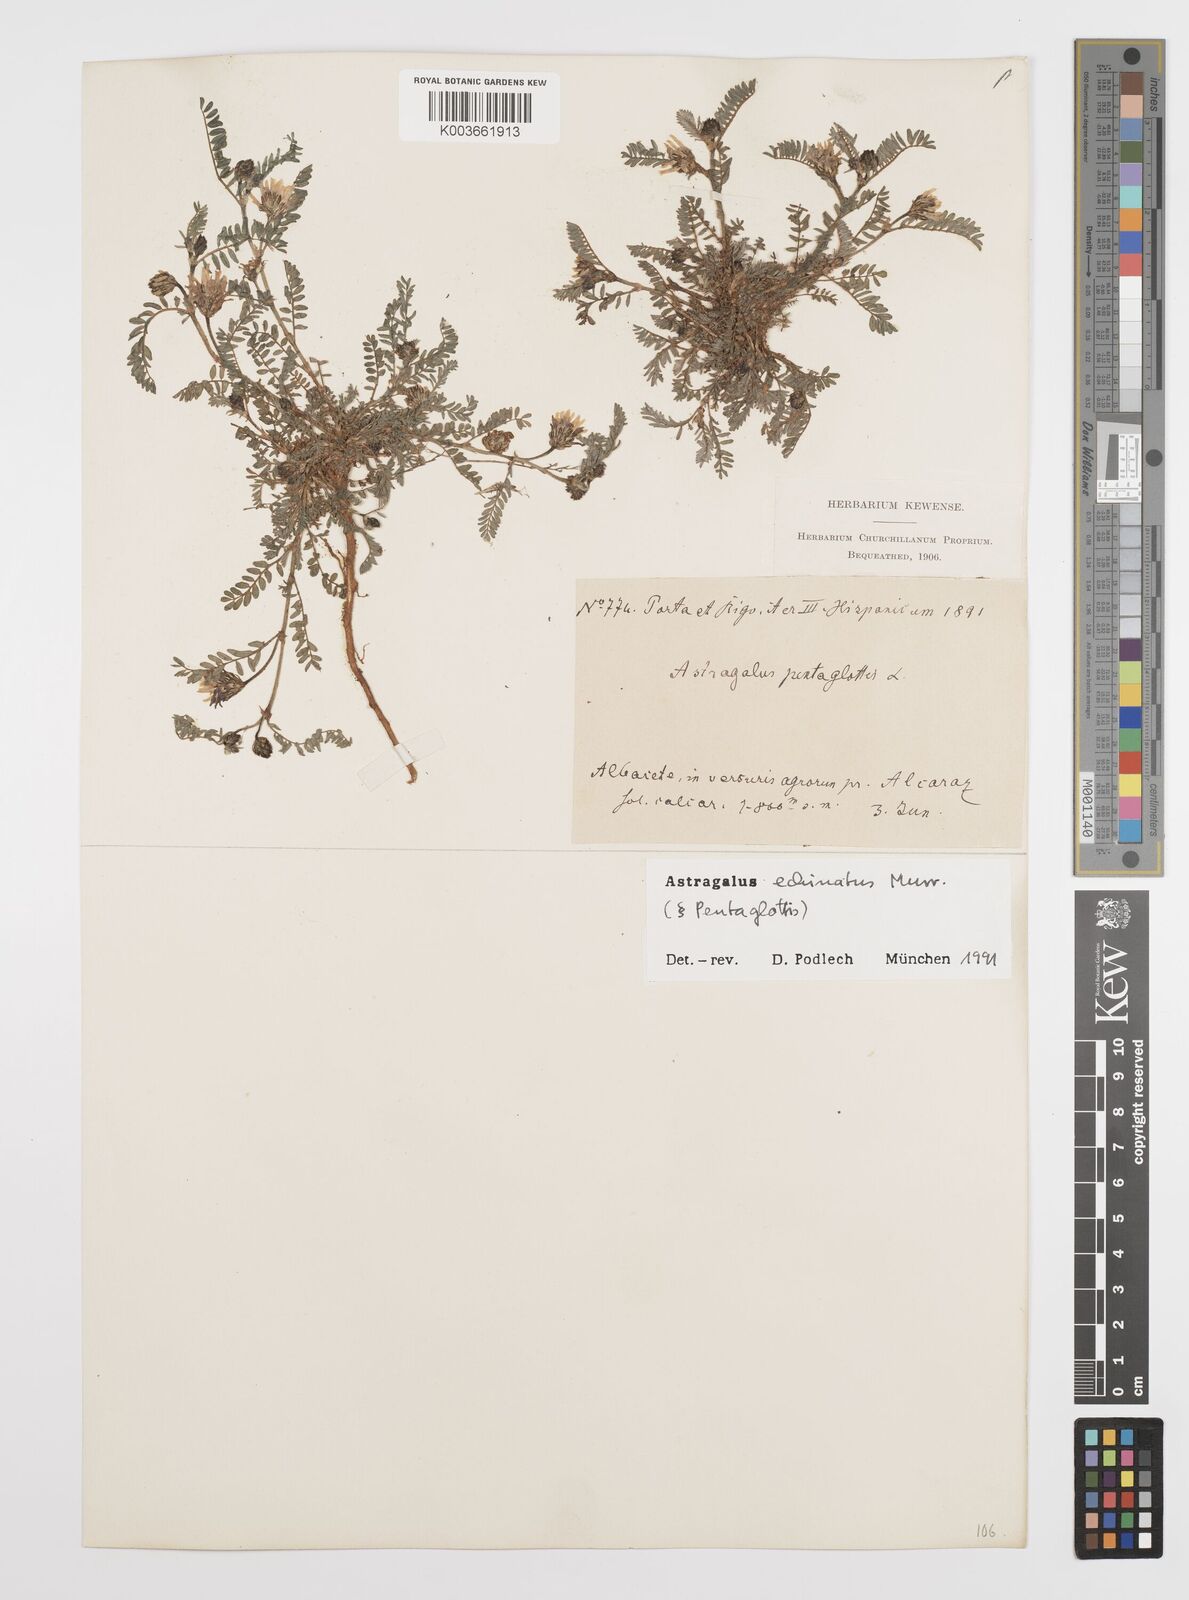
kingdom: Plantae
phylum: Tracheophyta
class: Magnoliopsida
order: Fabales
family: Fabaceae
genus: Astragalus
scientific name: Astragalus echinatus
